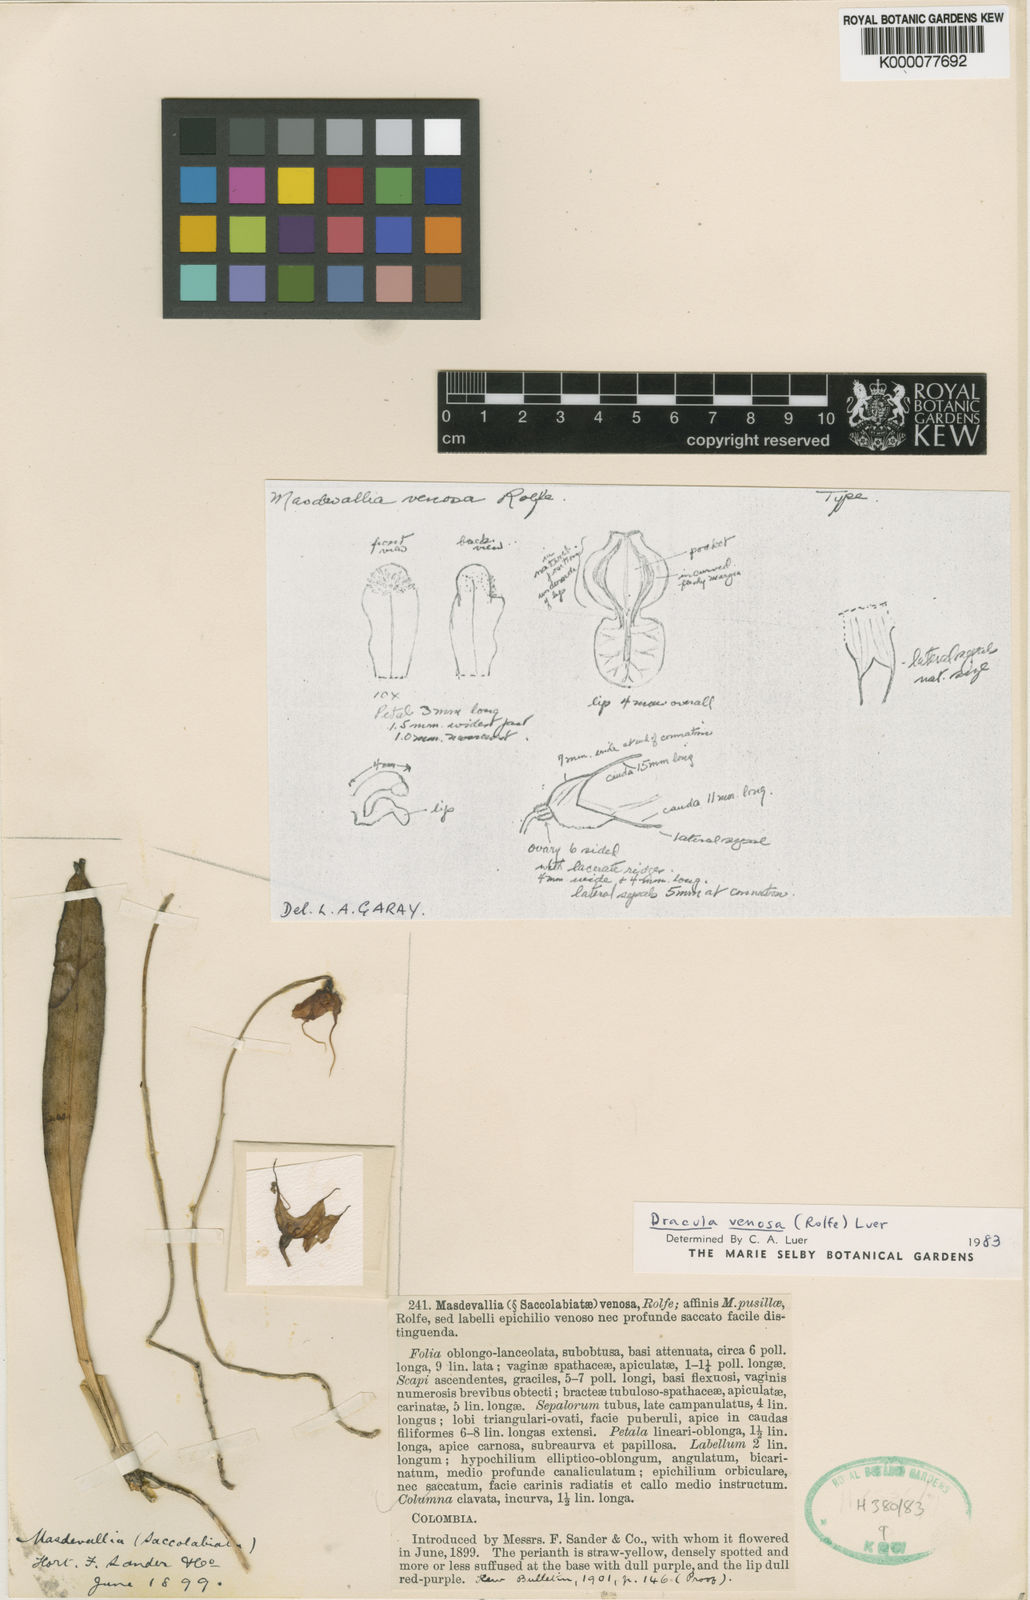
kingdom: Plantae
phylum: Tracheophyta
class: Liliopsida
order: Asparagales
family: Orchidaceae
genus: Dracula
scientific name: Dracula venosa
